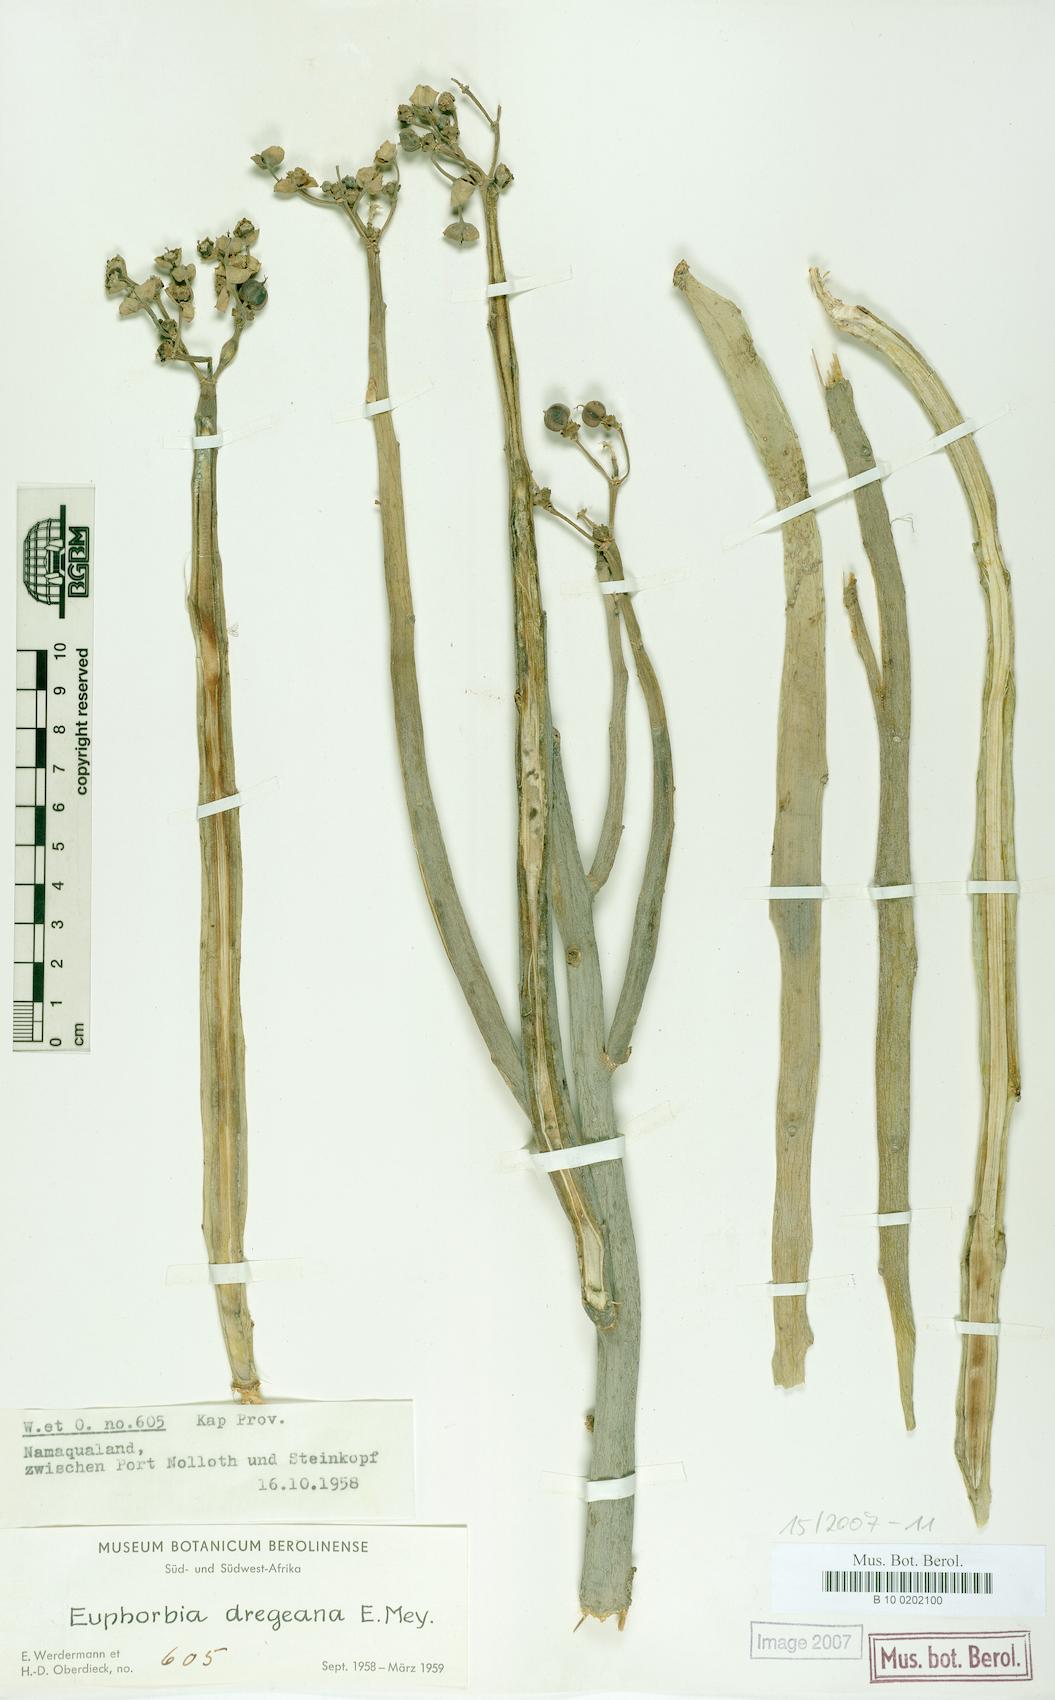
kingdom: Plantae
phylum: Tracheophyta
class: Magnoliopsida
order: Malpighiales
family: Euphorbiaceae
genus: Euphorbia
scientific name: Euphorbia dregeana
